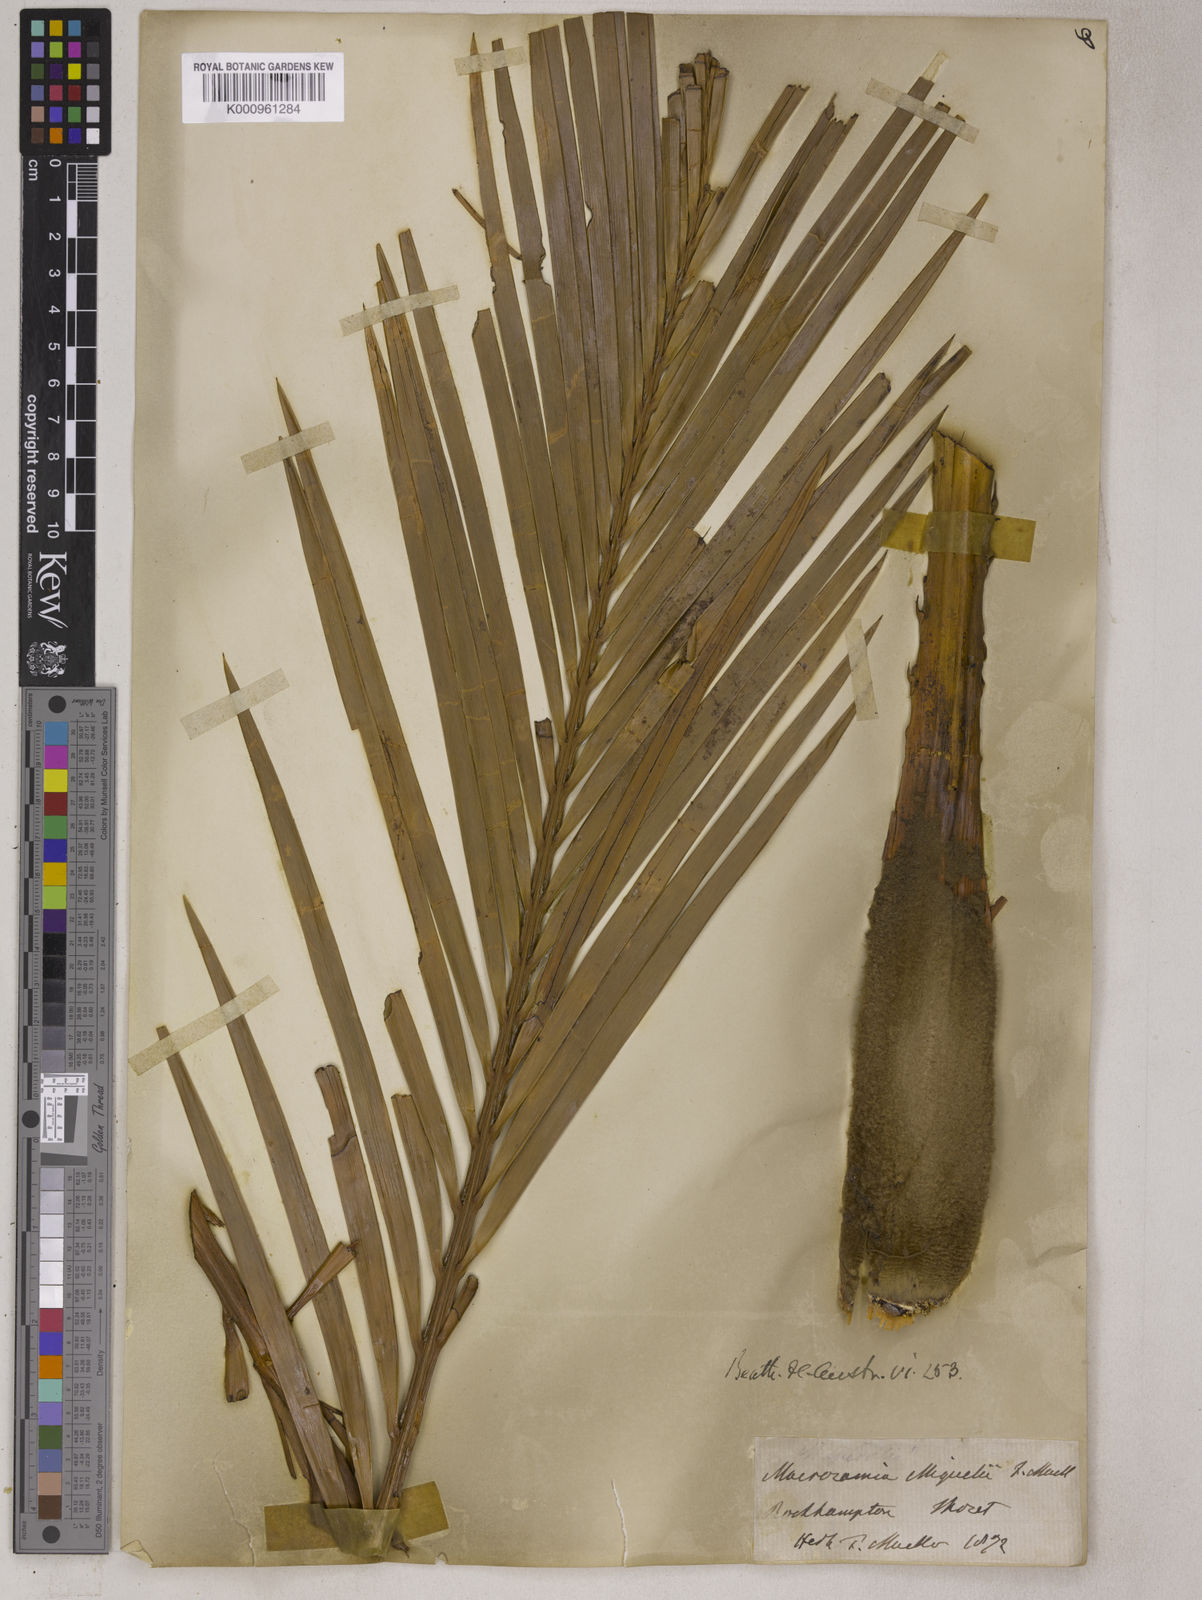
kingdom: Plantae
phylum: Tracheophyta
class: Cycadopsida
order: Cycadales
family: Zamiaceae
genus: Macrozamia
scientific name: Macrozamia miquelii
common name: Wild pineapple
